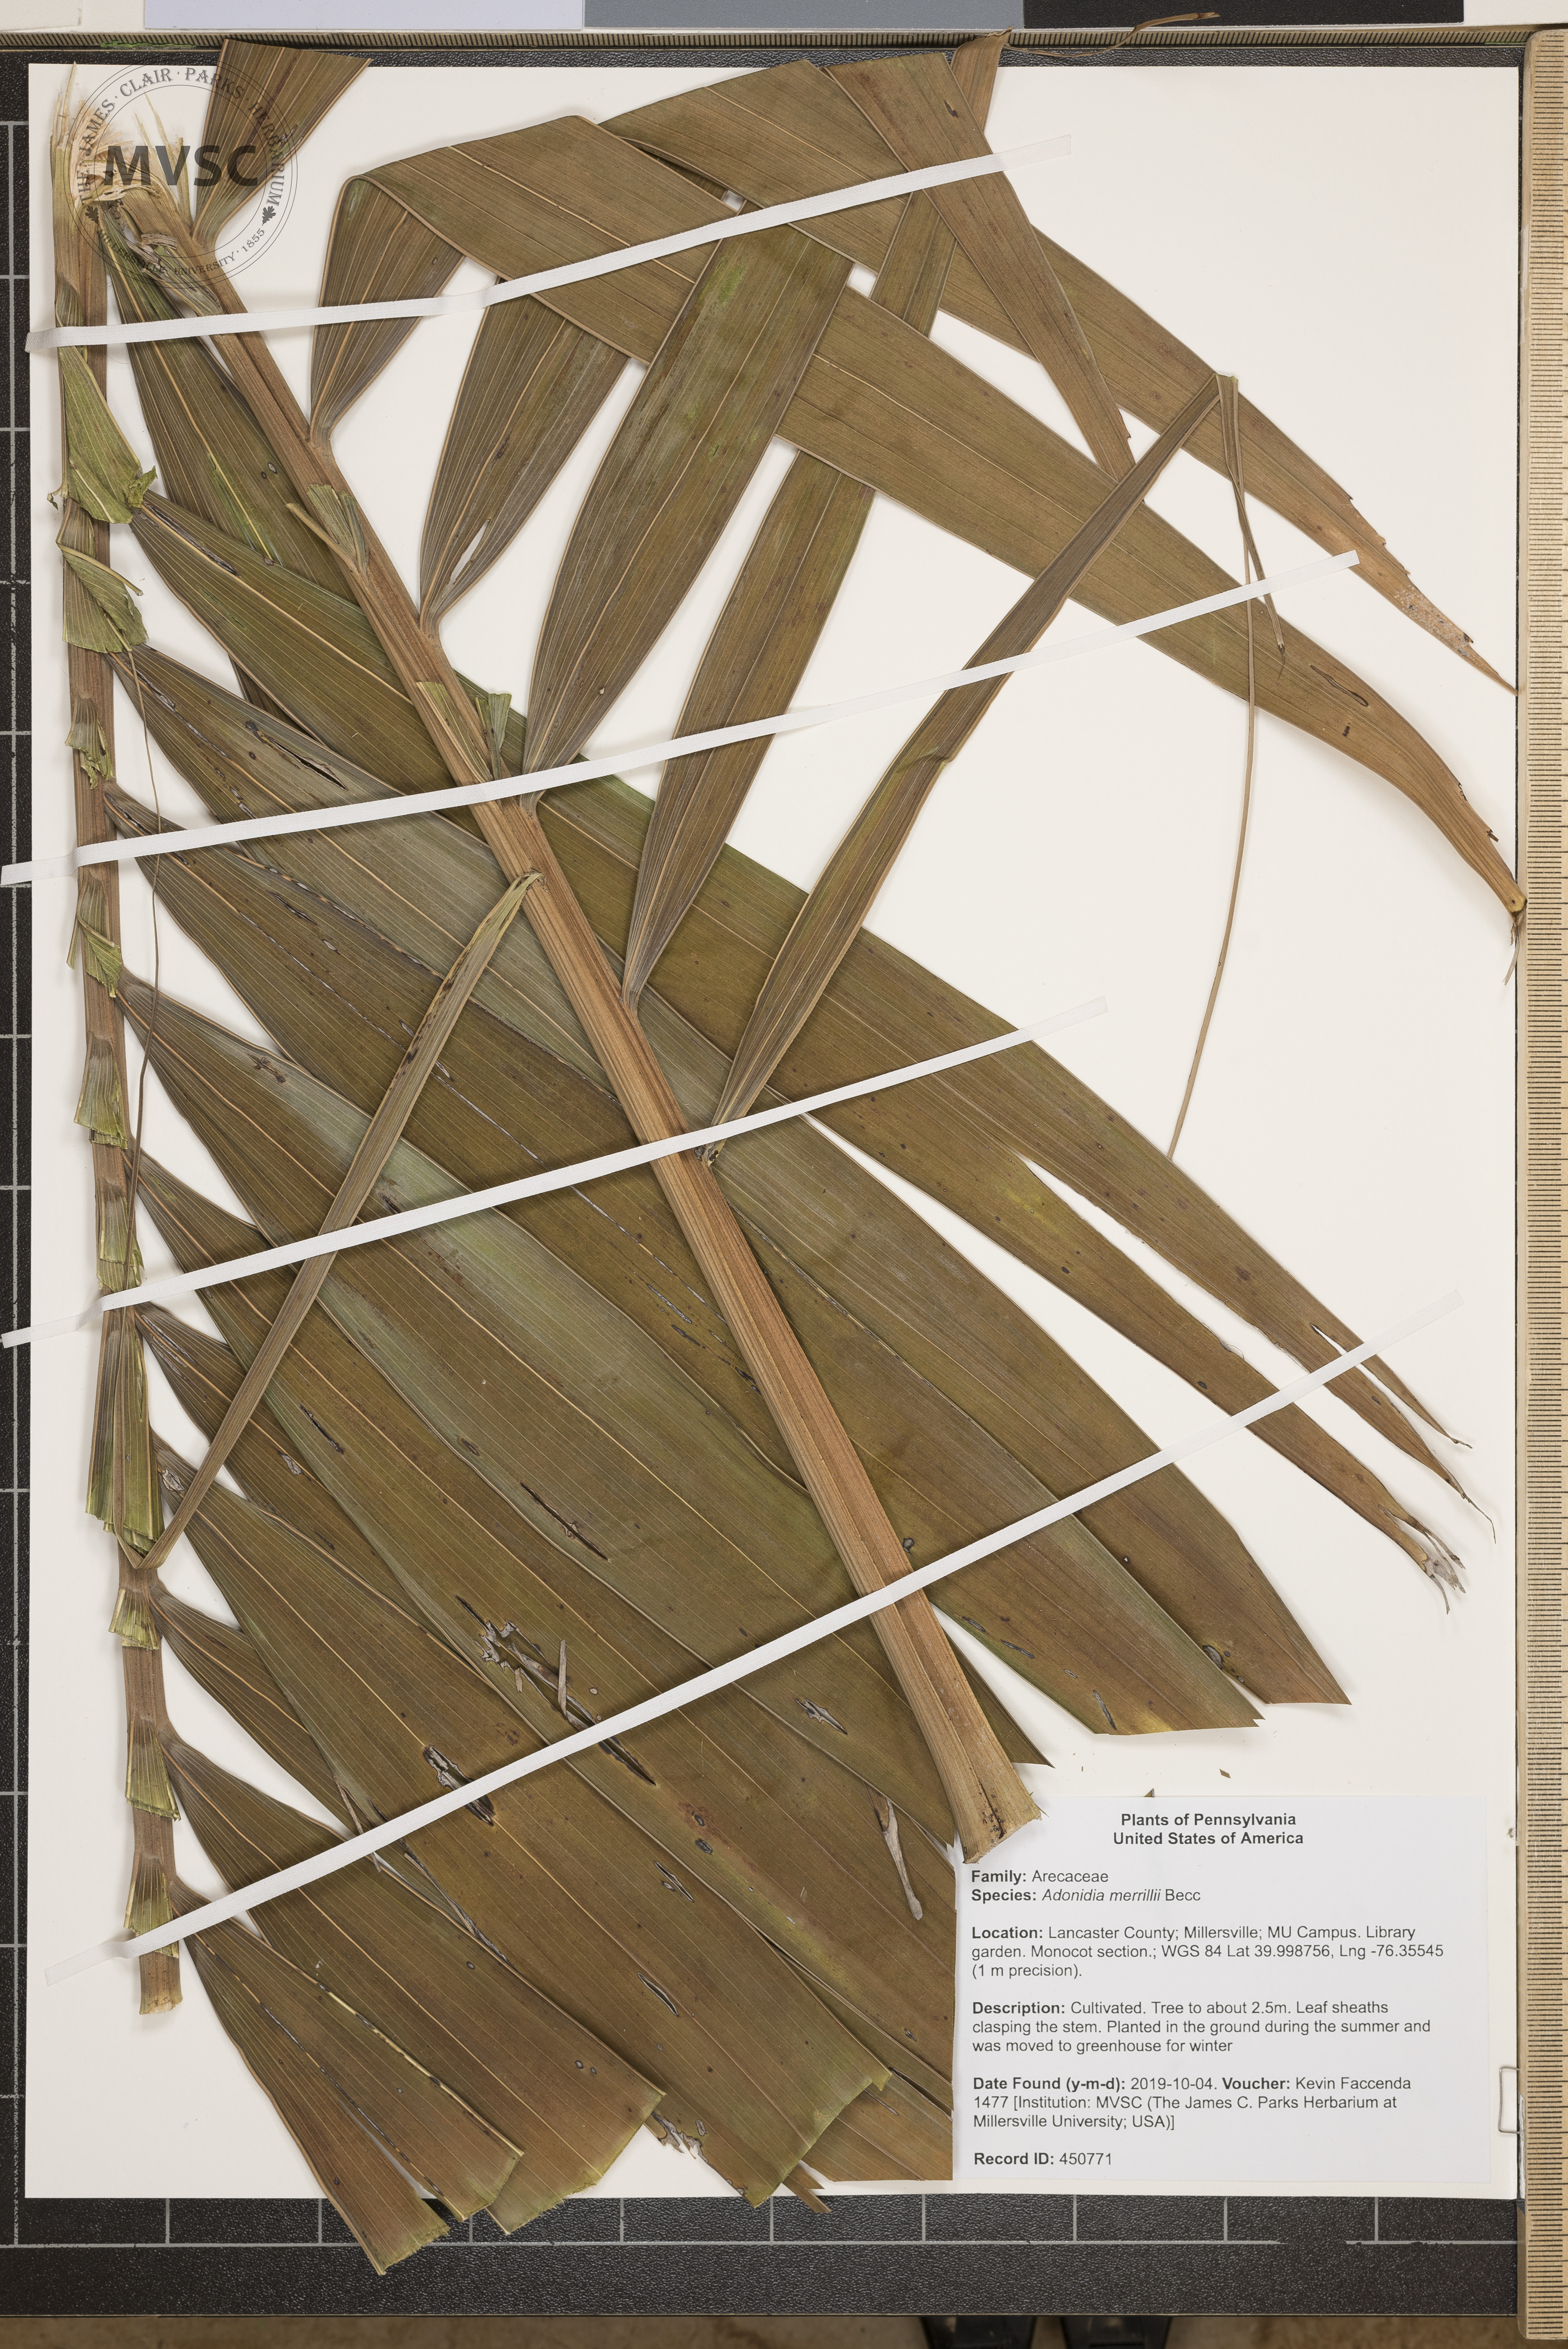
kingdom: Plantae
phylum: Tracheophyta
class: Liliopsida
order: Arecales
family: Arecaceae
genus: Adonidia
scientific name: Adonidia merrillii
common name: Manila palm
